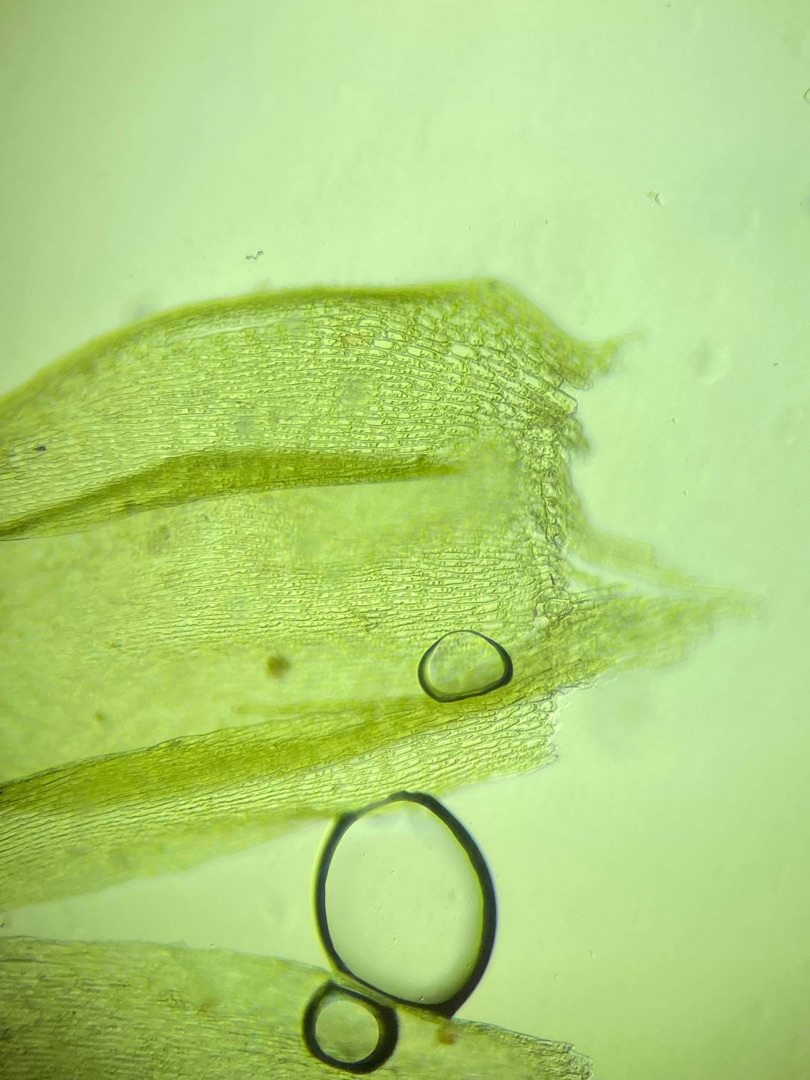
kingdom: Plantae
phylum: Bryophyta
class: Bryopsida
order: Hypnales
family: Brachytheciaceae
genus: Brachythecium
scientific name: Brachythecium salebrosum
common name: Skov-kortkapsel
